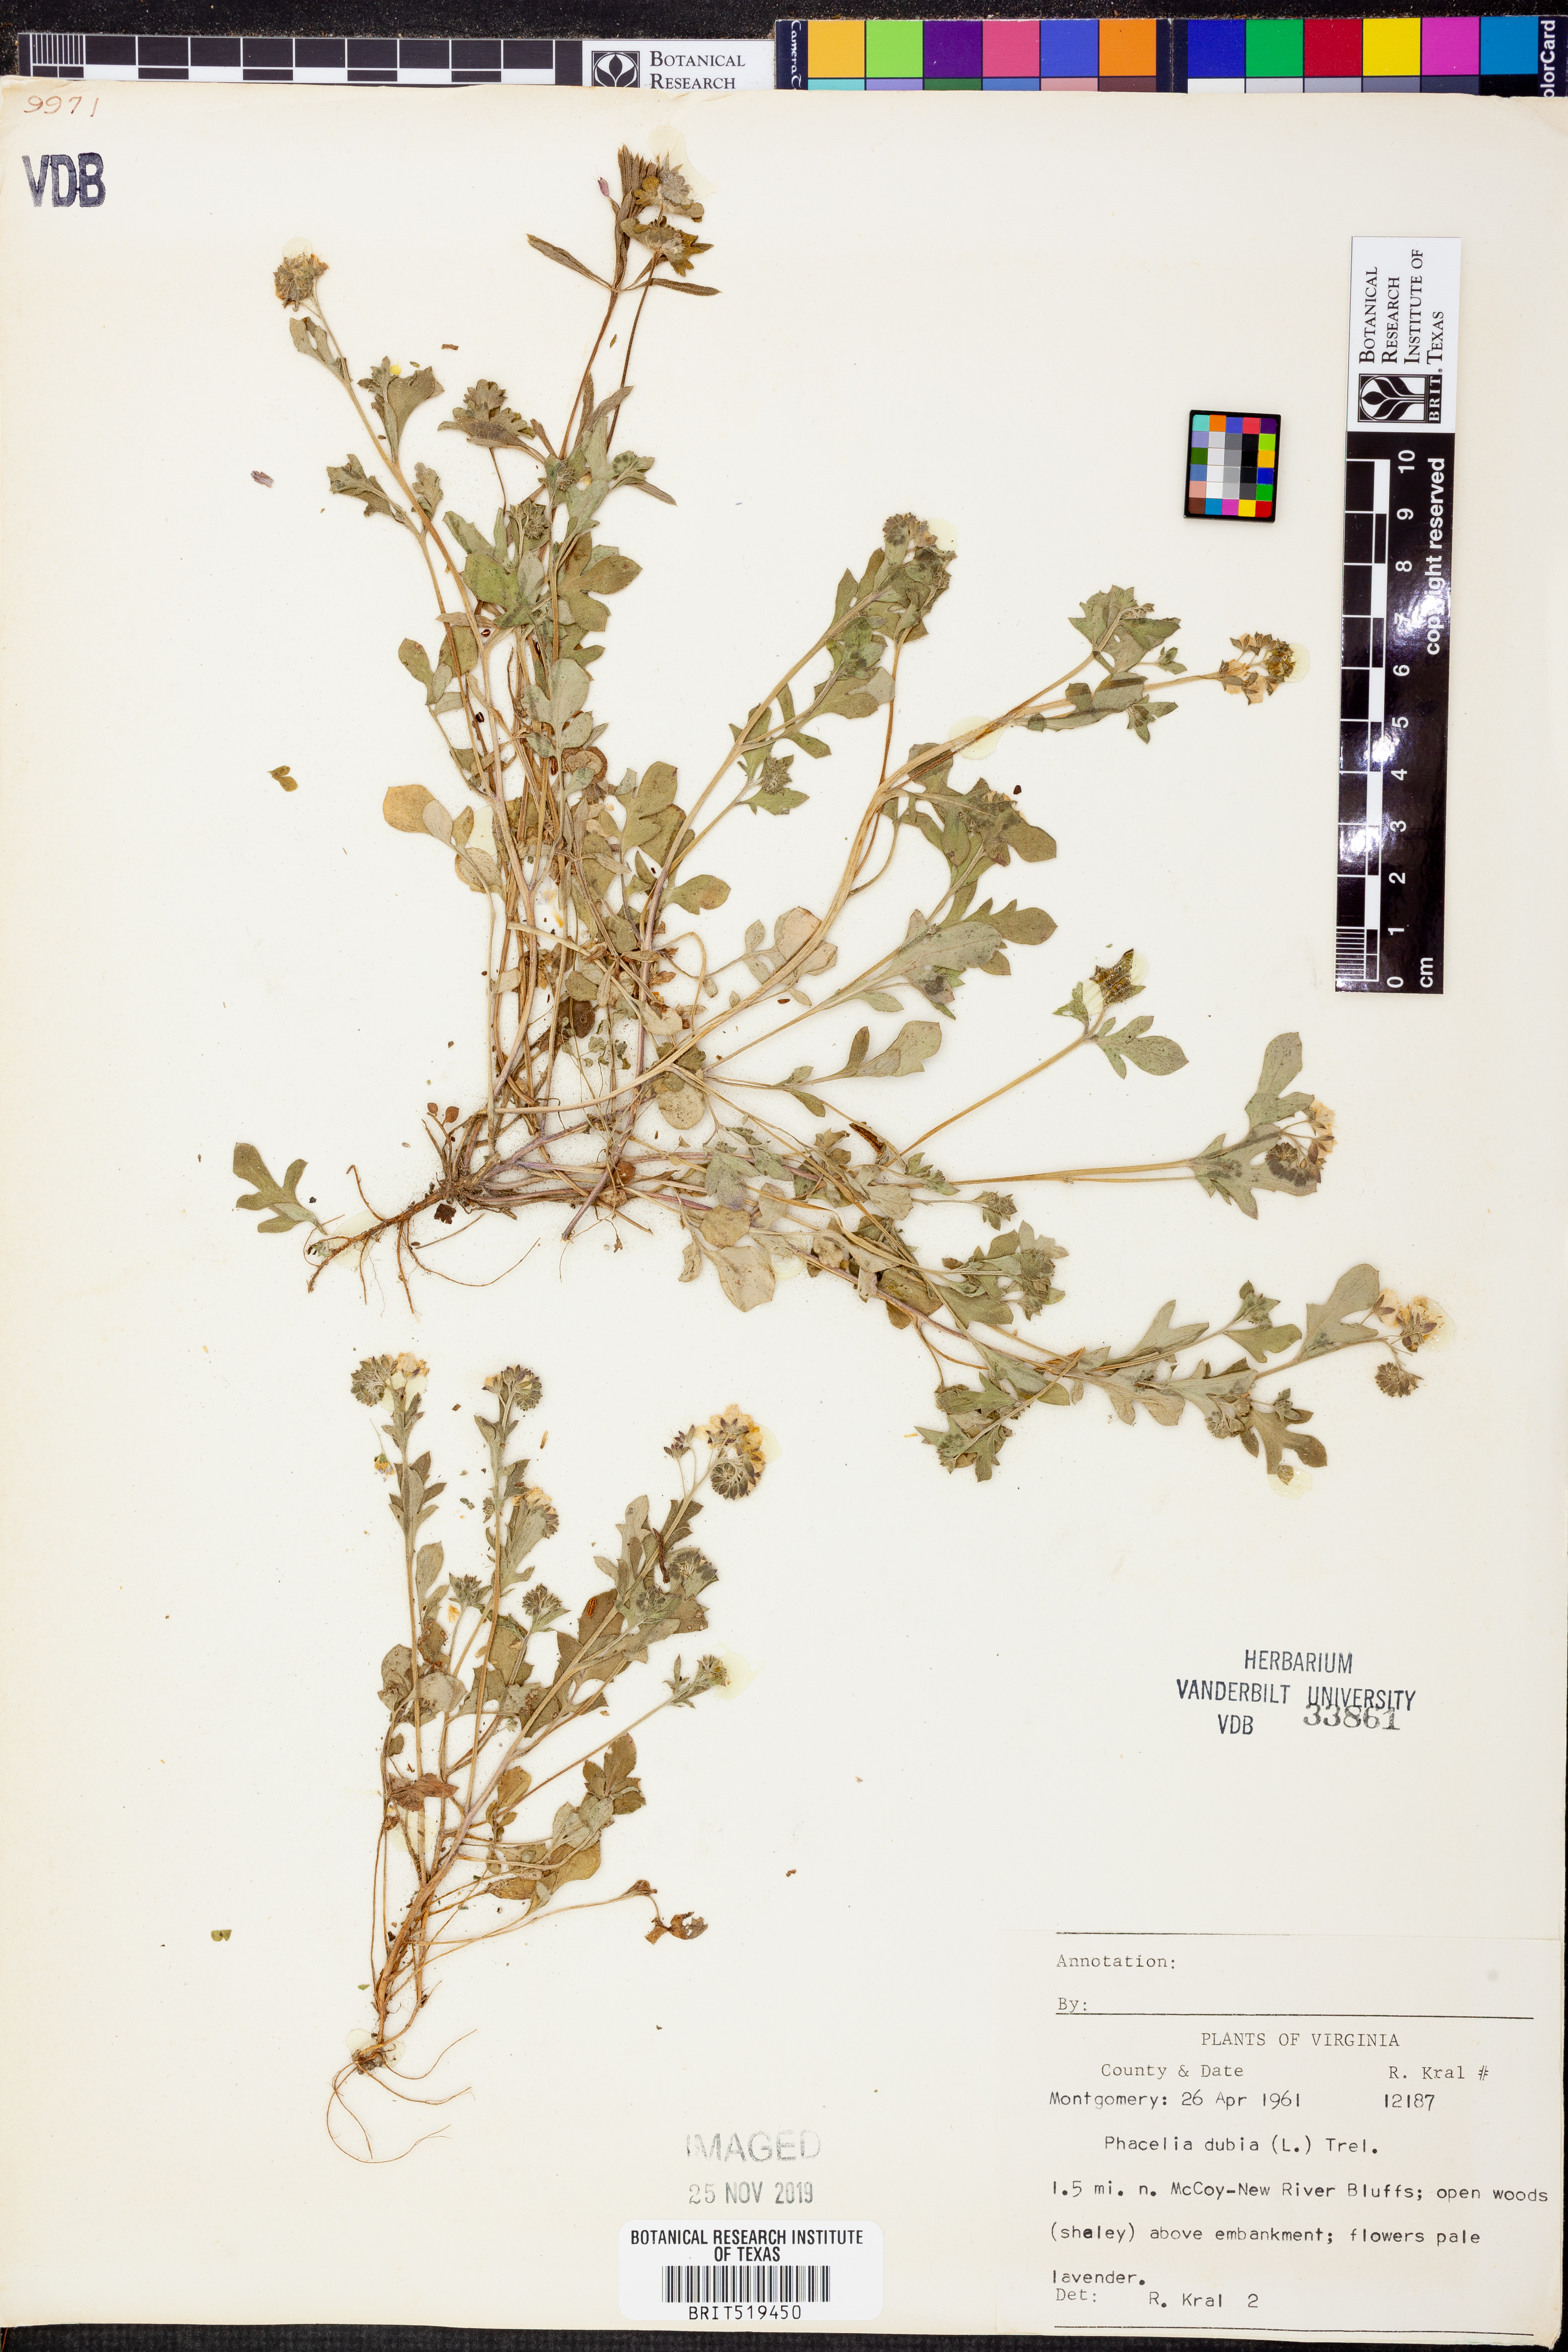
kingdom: Plantae
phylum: Tracheophyta
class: Magnoliopsida
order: Boraginales
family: Hydrophyllaceae
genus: Phacelia
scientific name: Phacelia dubia
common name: Appalachian phacelia
